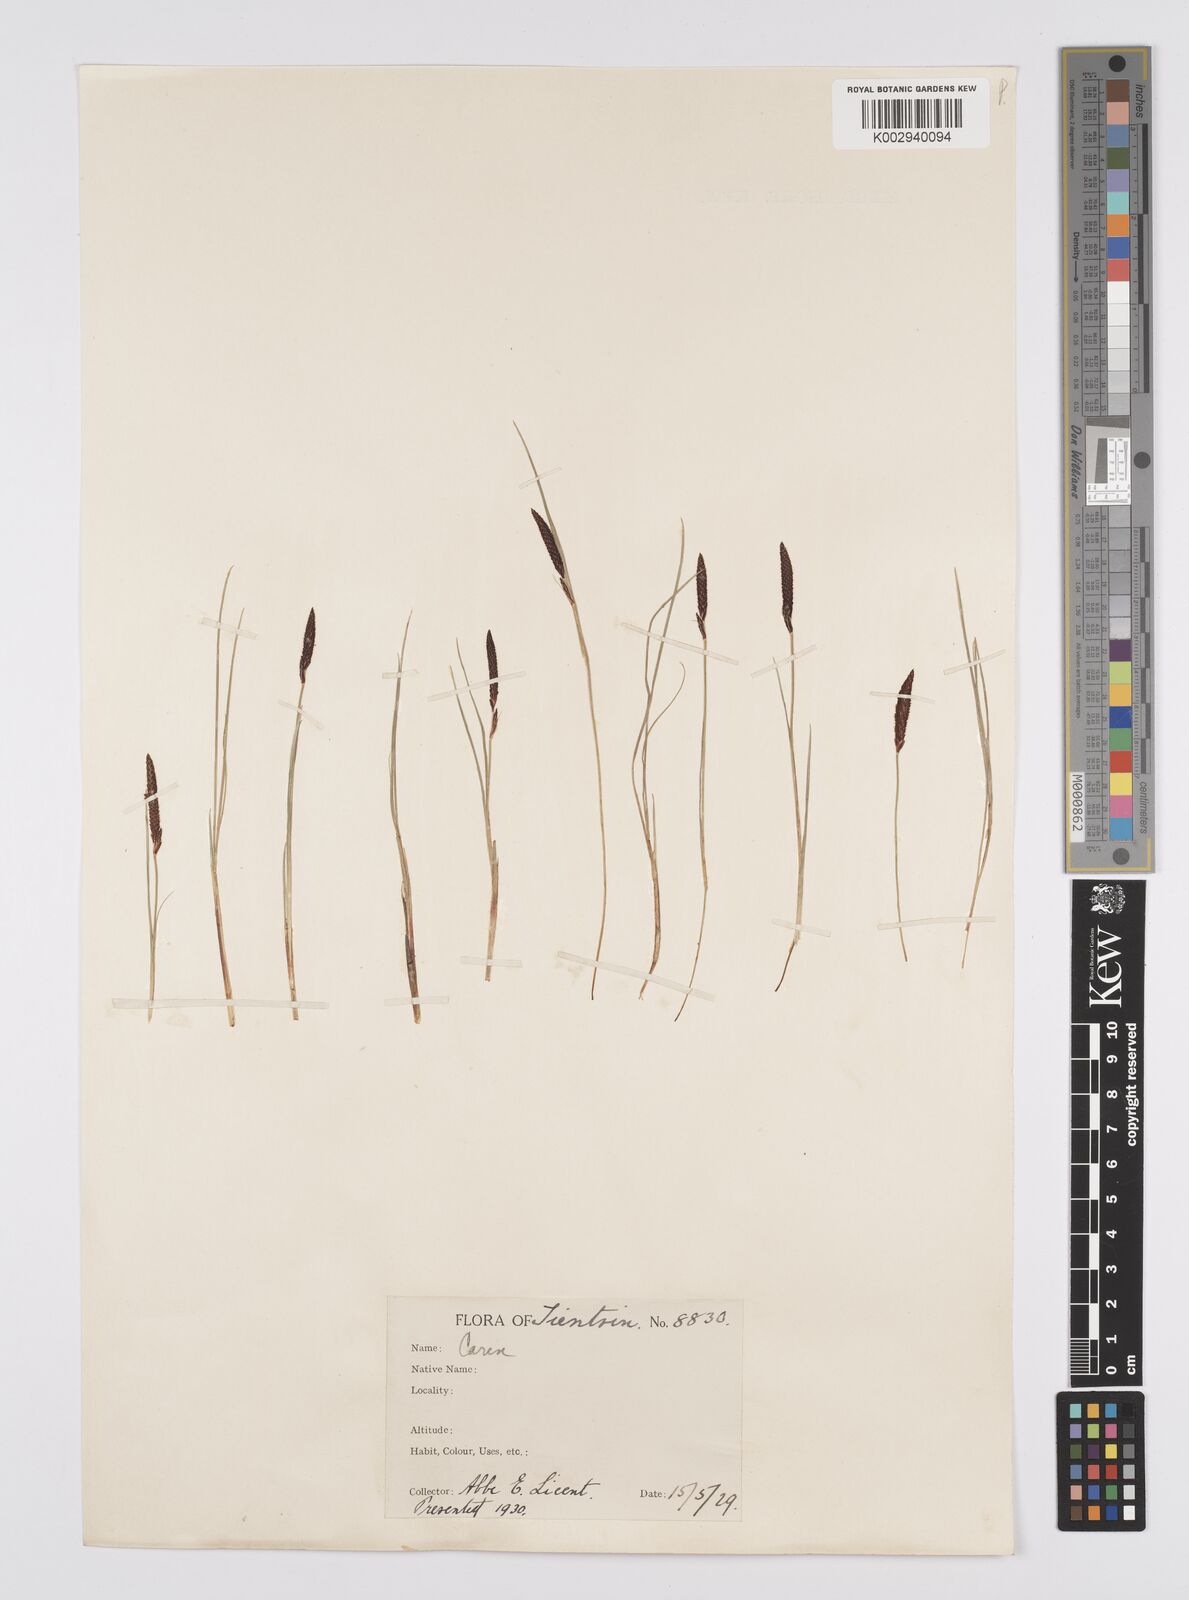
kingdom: Plantae
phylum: Tracheophyta
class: Liliopsida
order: Poales
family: Cyperaceae
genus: Carex
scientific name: Carex thunbergii
